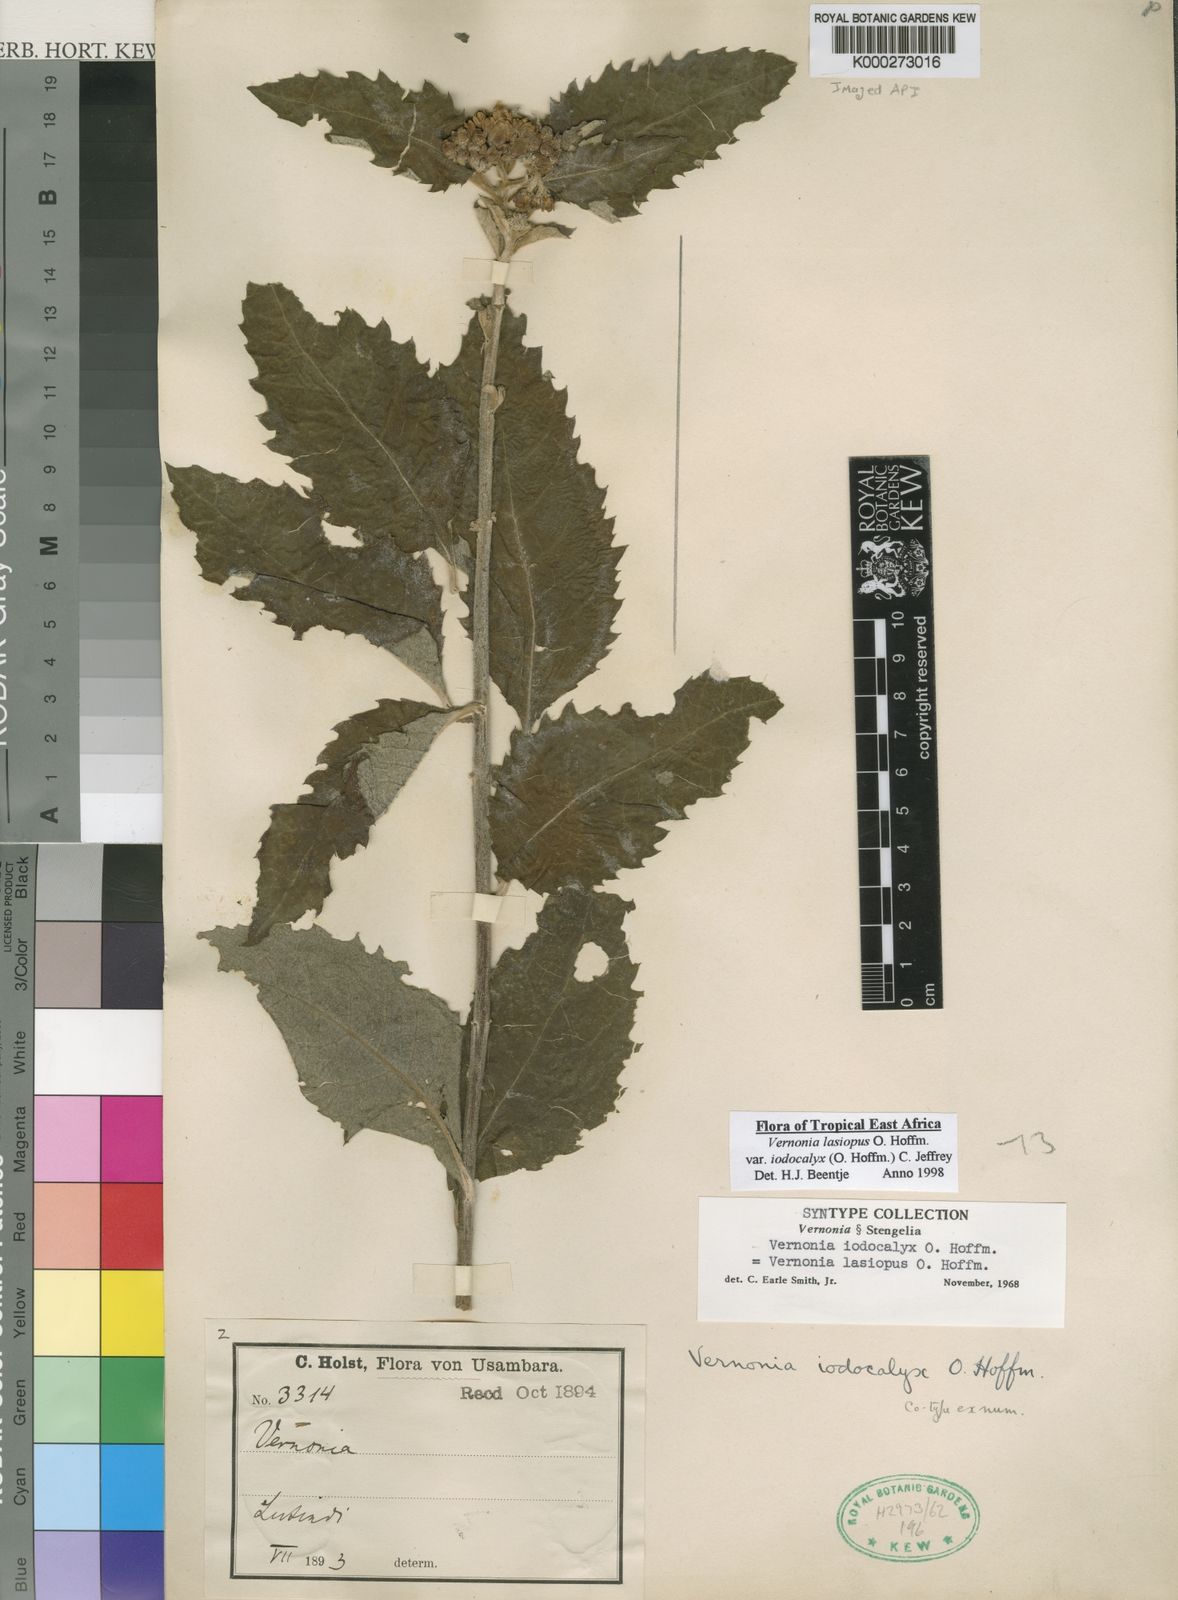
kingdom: Plantae
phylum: Tracheophyta
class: Magnoliopsida
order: Asterales
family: Asteraceae
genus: Baccharoides
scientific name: Baccharoides lasiopus
